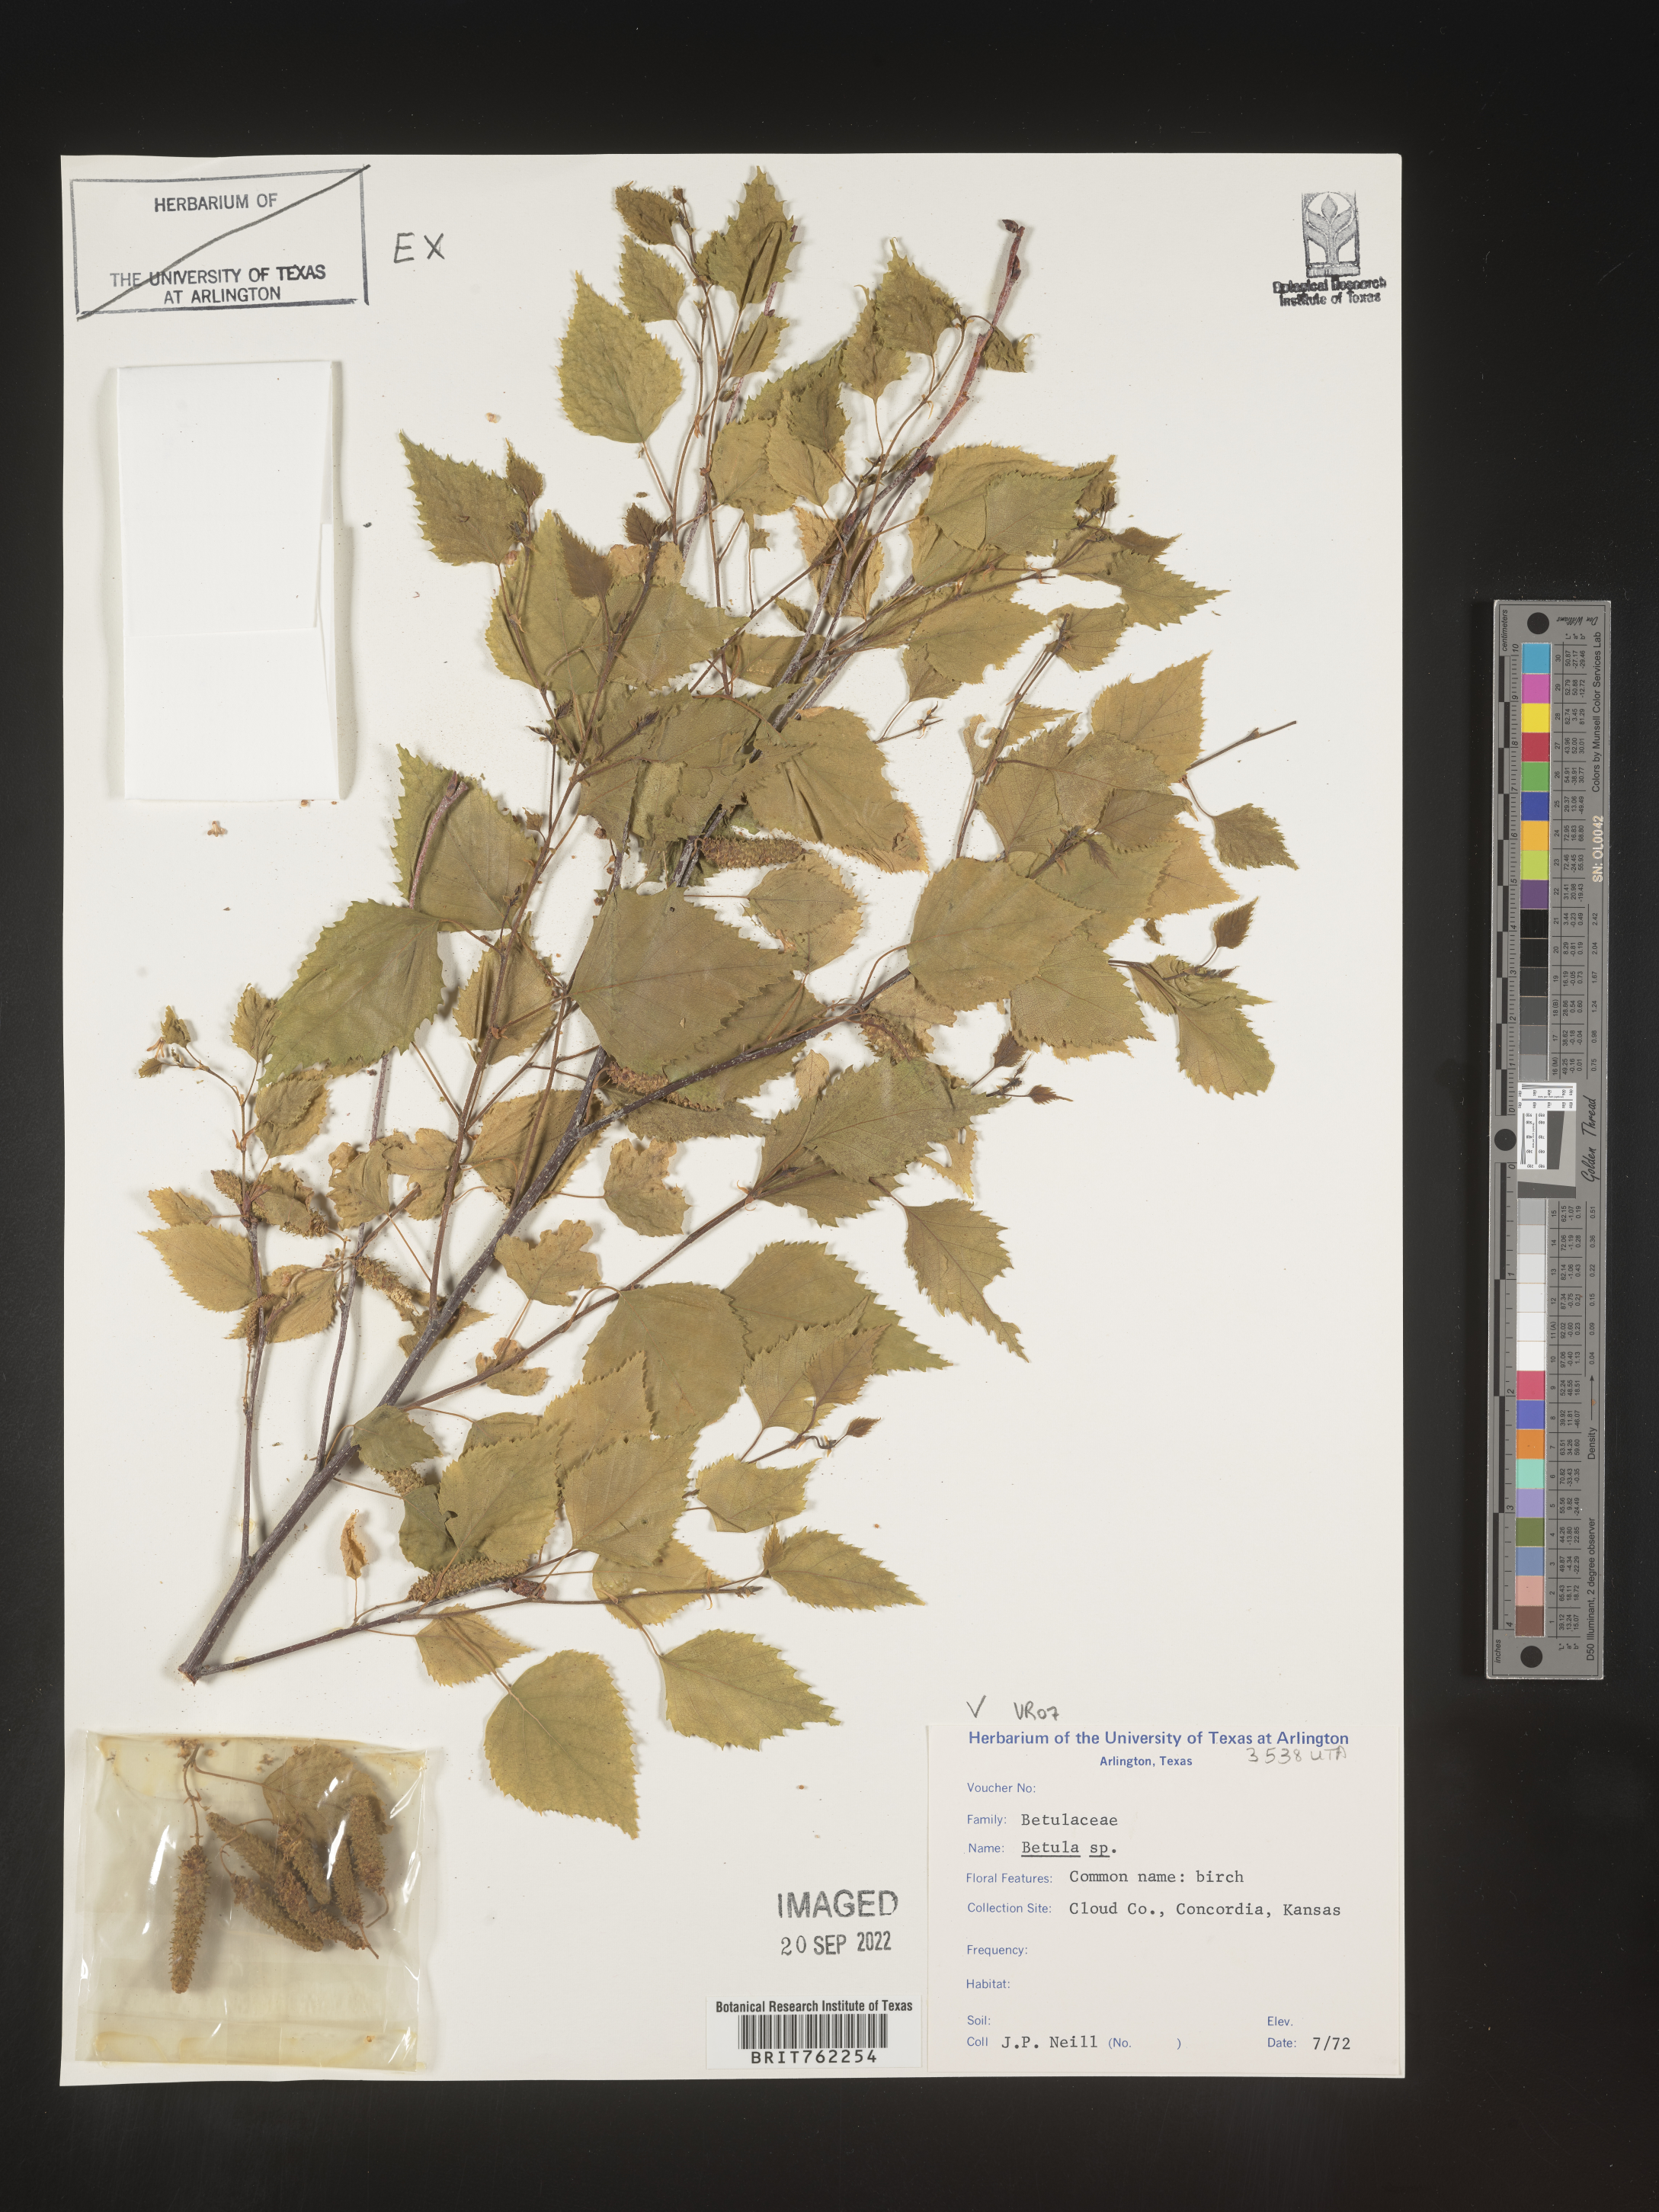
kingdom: Plantae
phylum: Tracheophyta
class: Magnoliopsida
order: Fagales
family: Betulaceae
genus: Betula
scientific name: Betula
